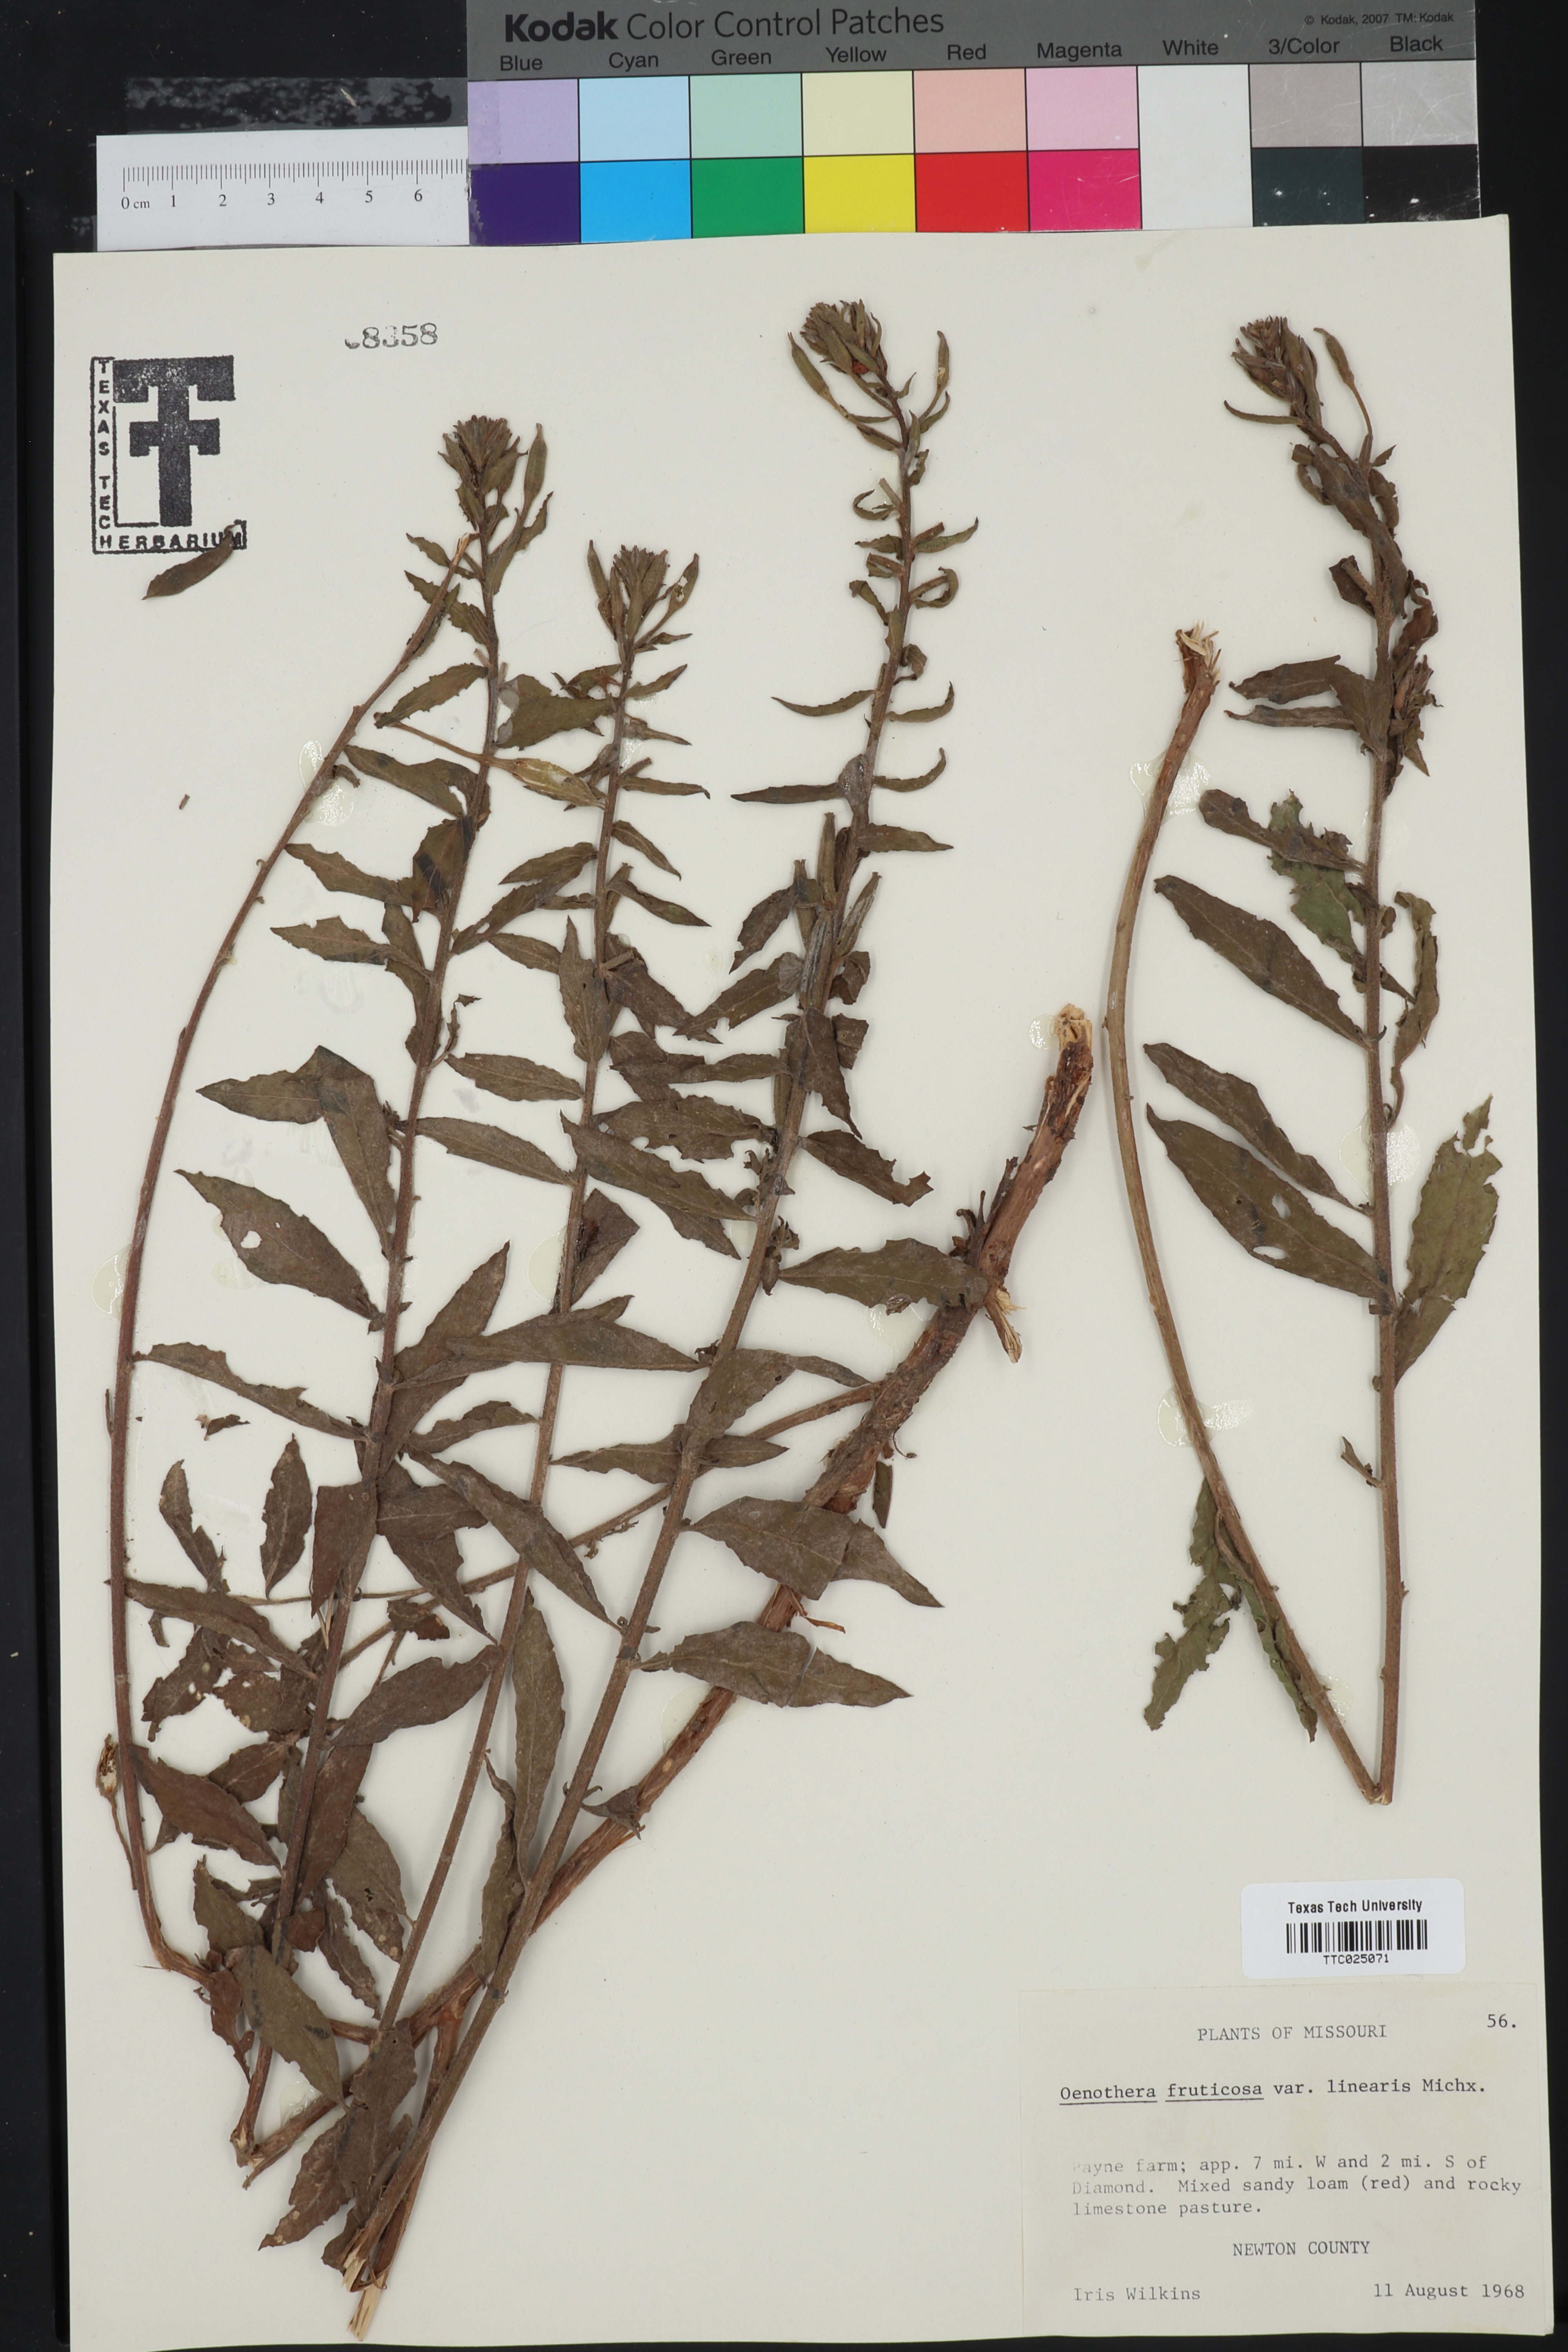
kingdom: Plantae
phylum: Tracheophyta
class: Magnoliopsida
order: Myrtales
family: Onagraceae
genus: Oenothera
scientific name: Oenothera fruticosa
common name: Southern sundrops
